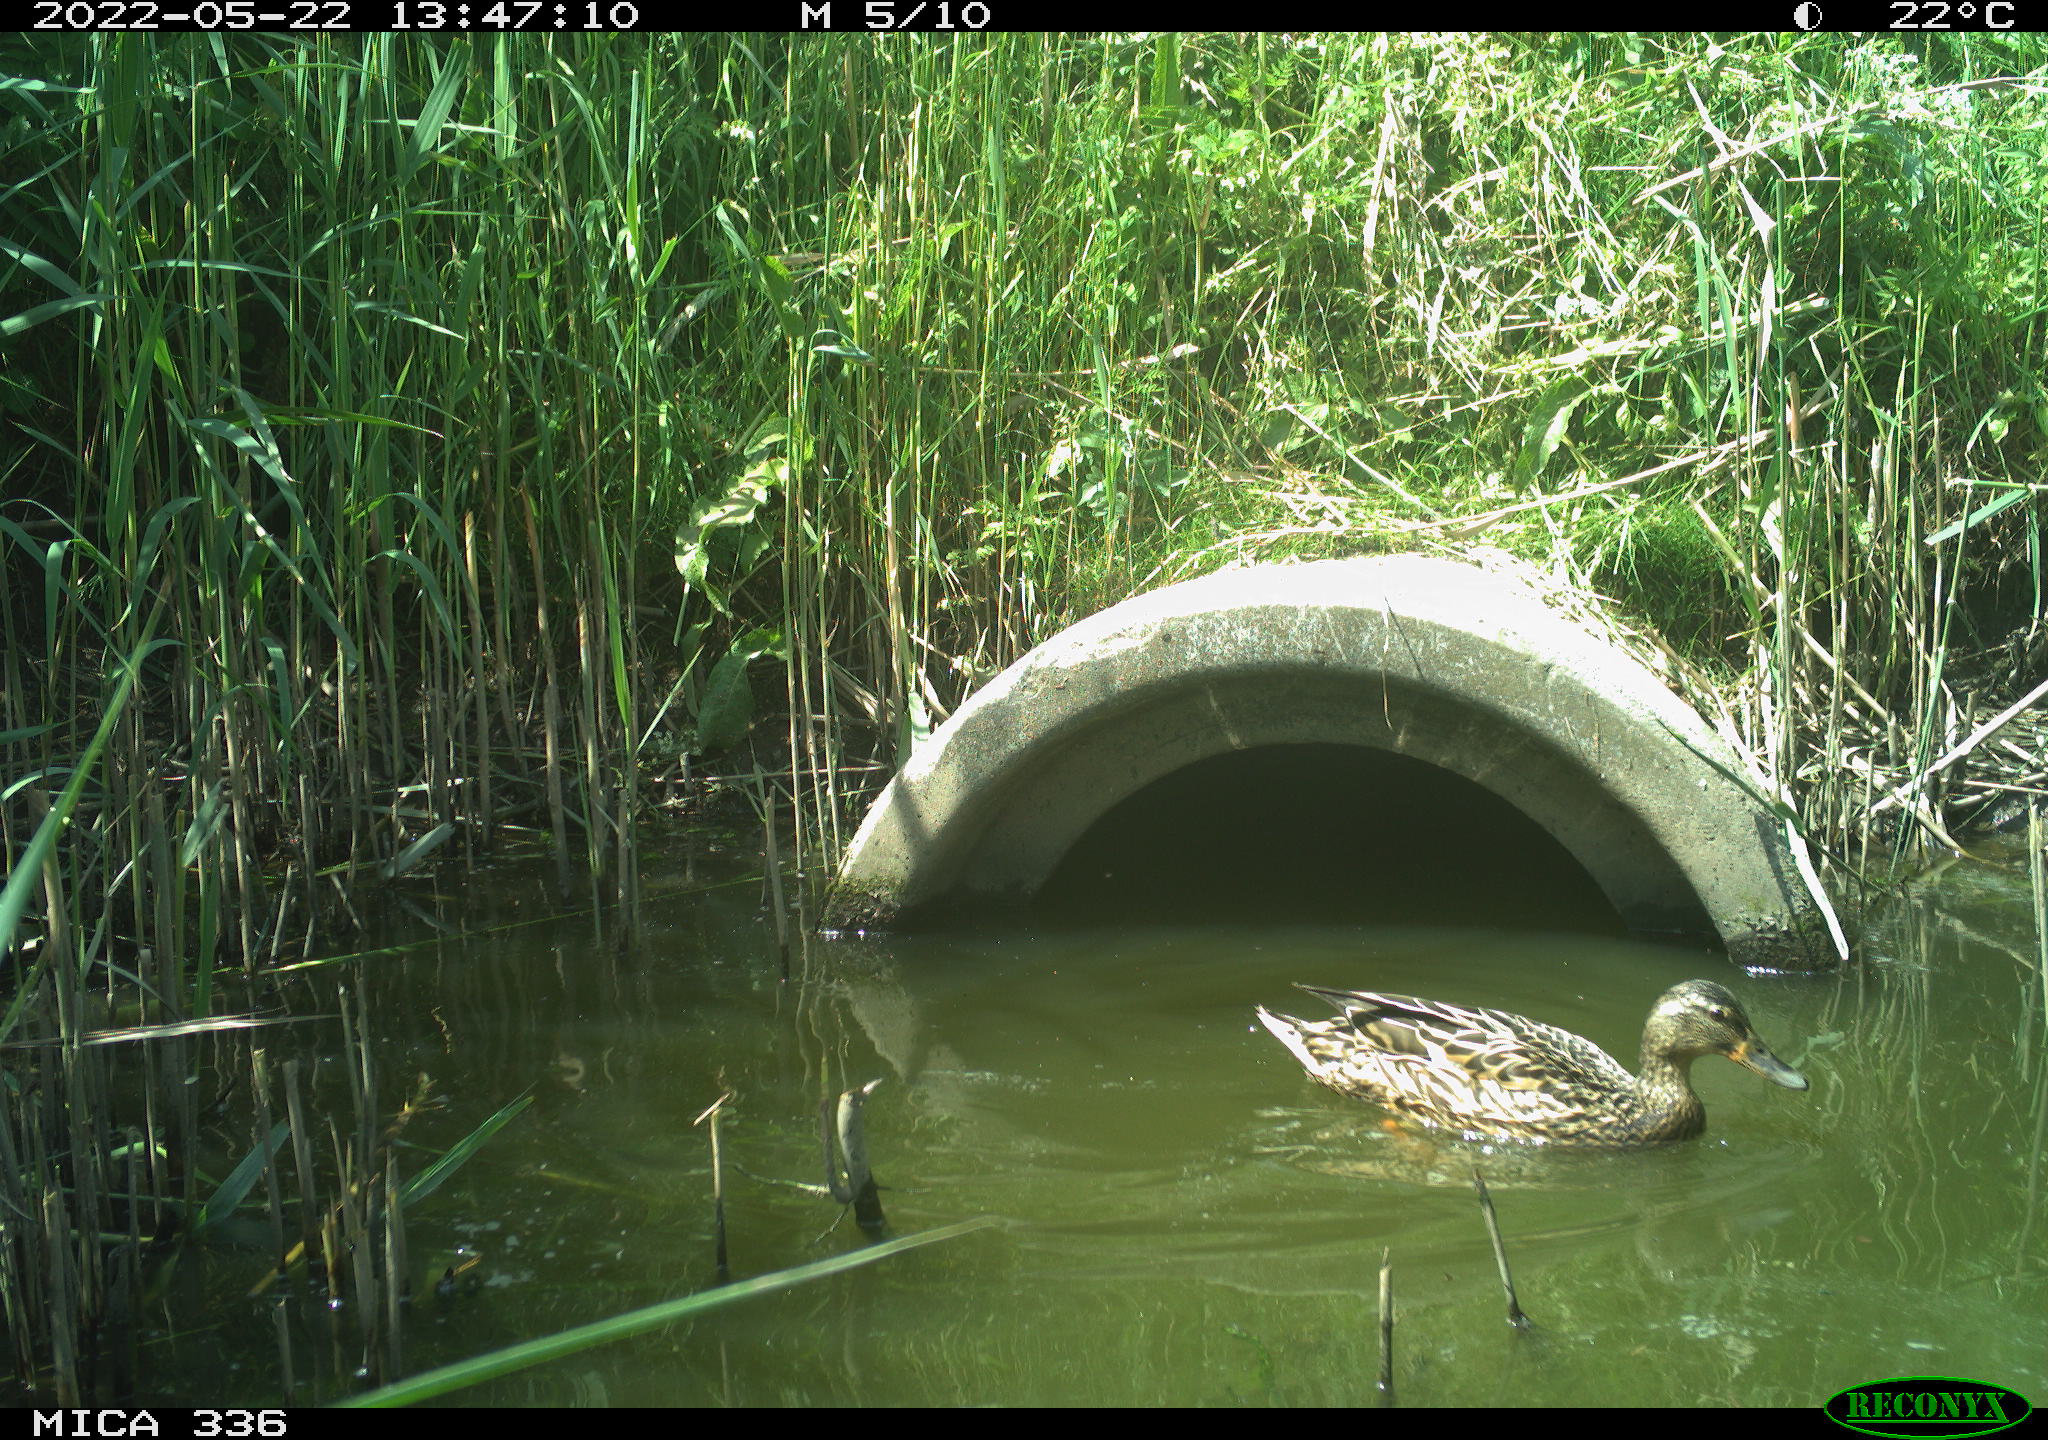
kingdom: Animalia
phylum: Chordata
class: Aves
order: Anseriformes
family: Anatidae
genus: Anas
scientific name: Anas platyrhynchos
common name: Mallard
